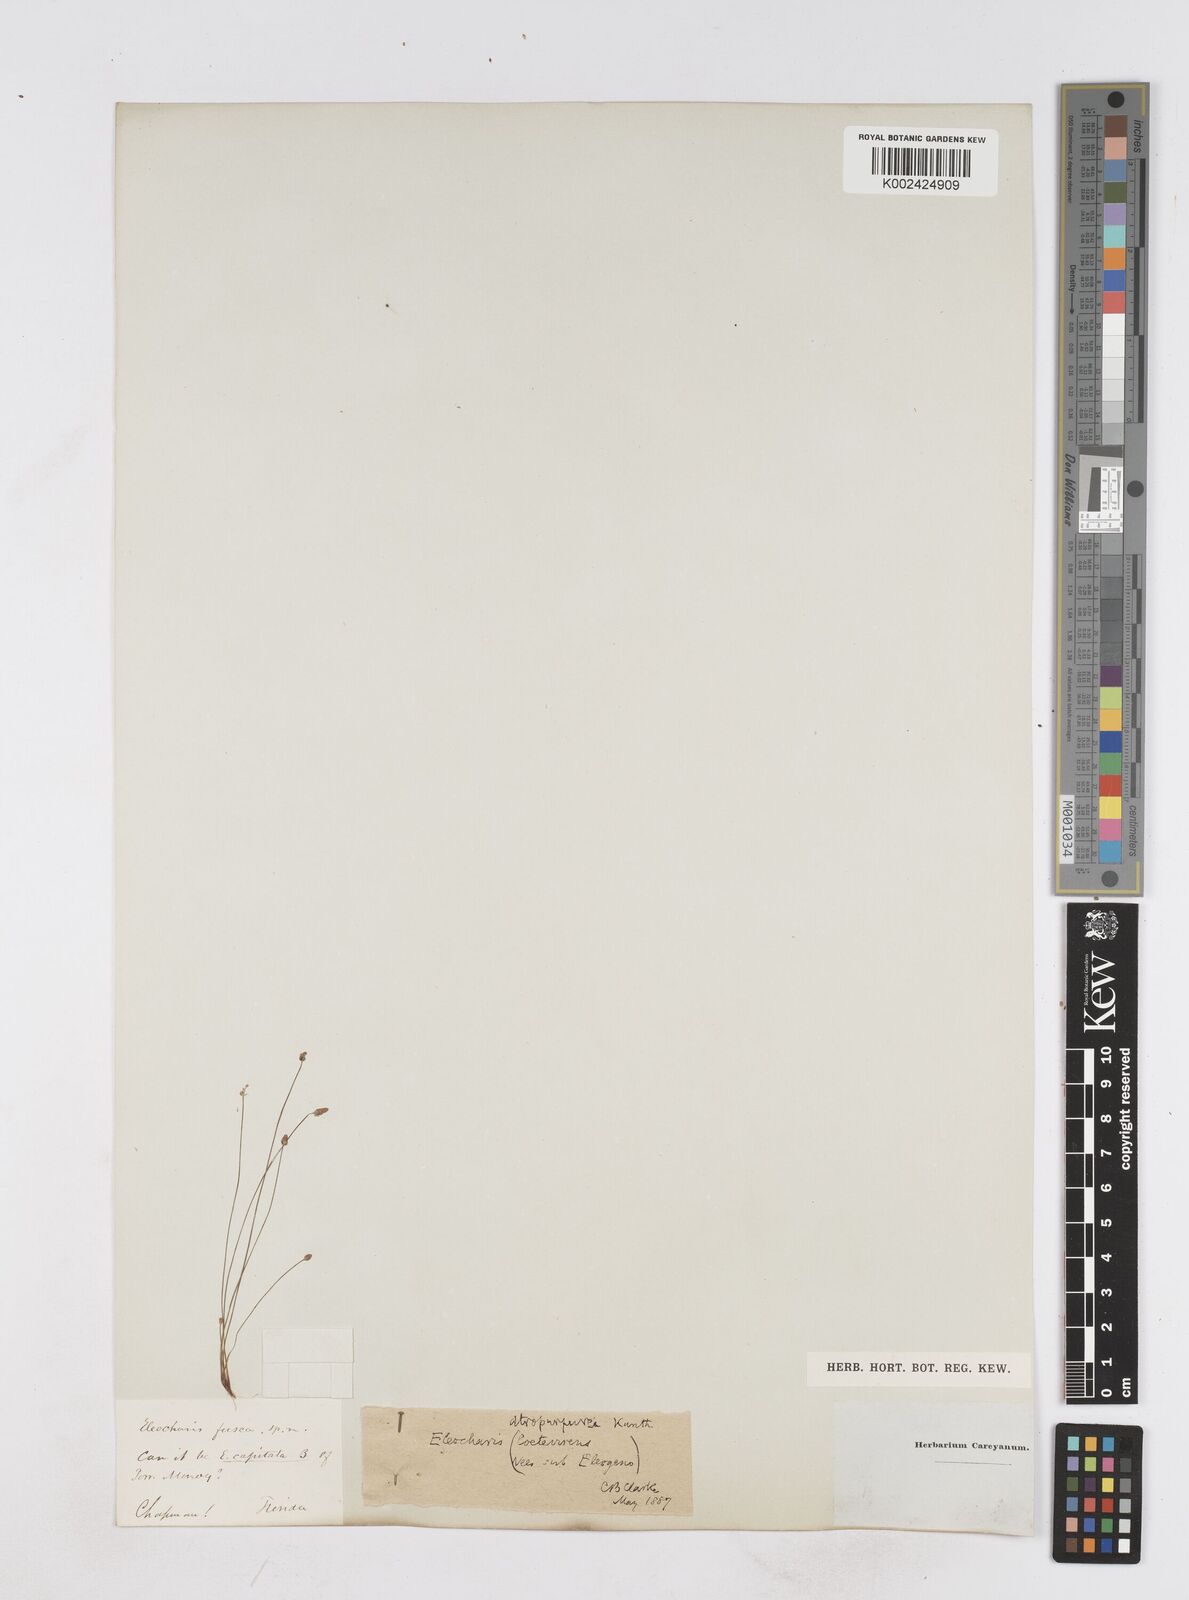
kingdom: Plantae
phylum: Tracheophyta
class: Liliopsida
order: Poales
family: Cyperaceae
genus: Eleocharis
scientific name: Eleocharis ovata
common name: Oval spike-rush
